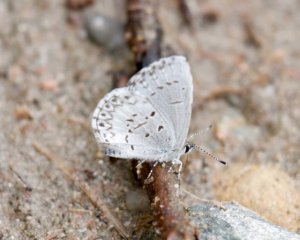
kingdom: Animalia
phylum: Arthropoda
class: Insecta
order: Lepidoptera
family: Lycaenidae
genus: Celastrina
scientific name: Celastrina
